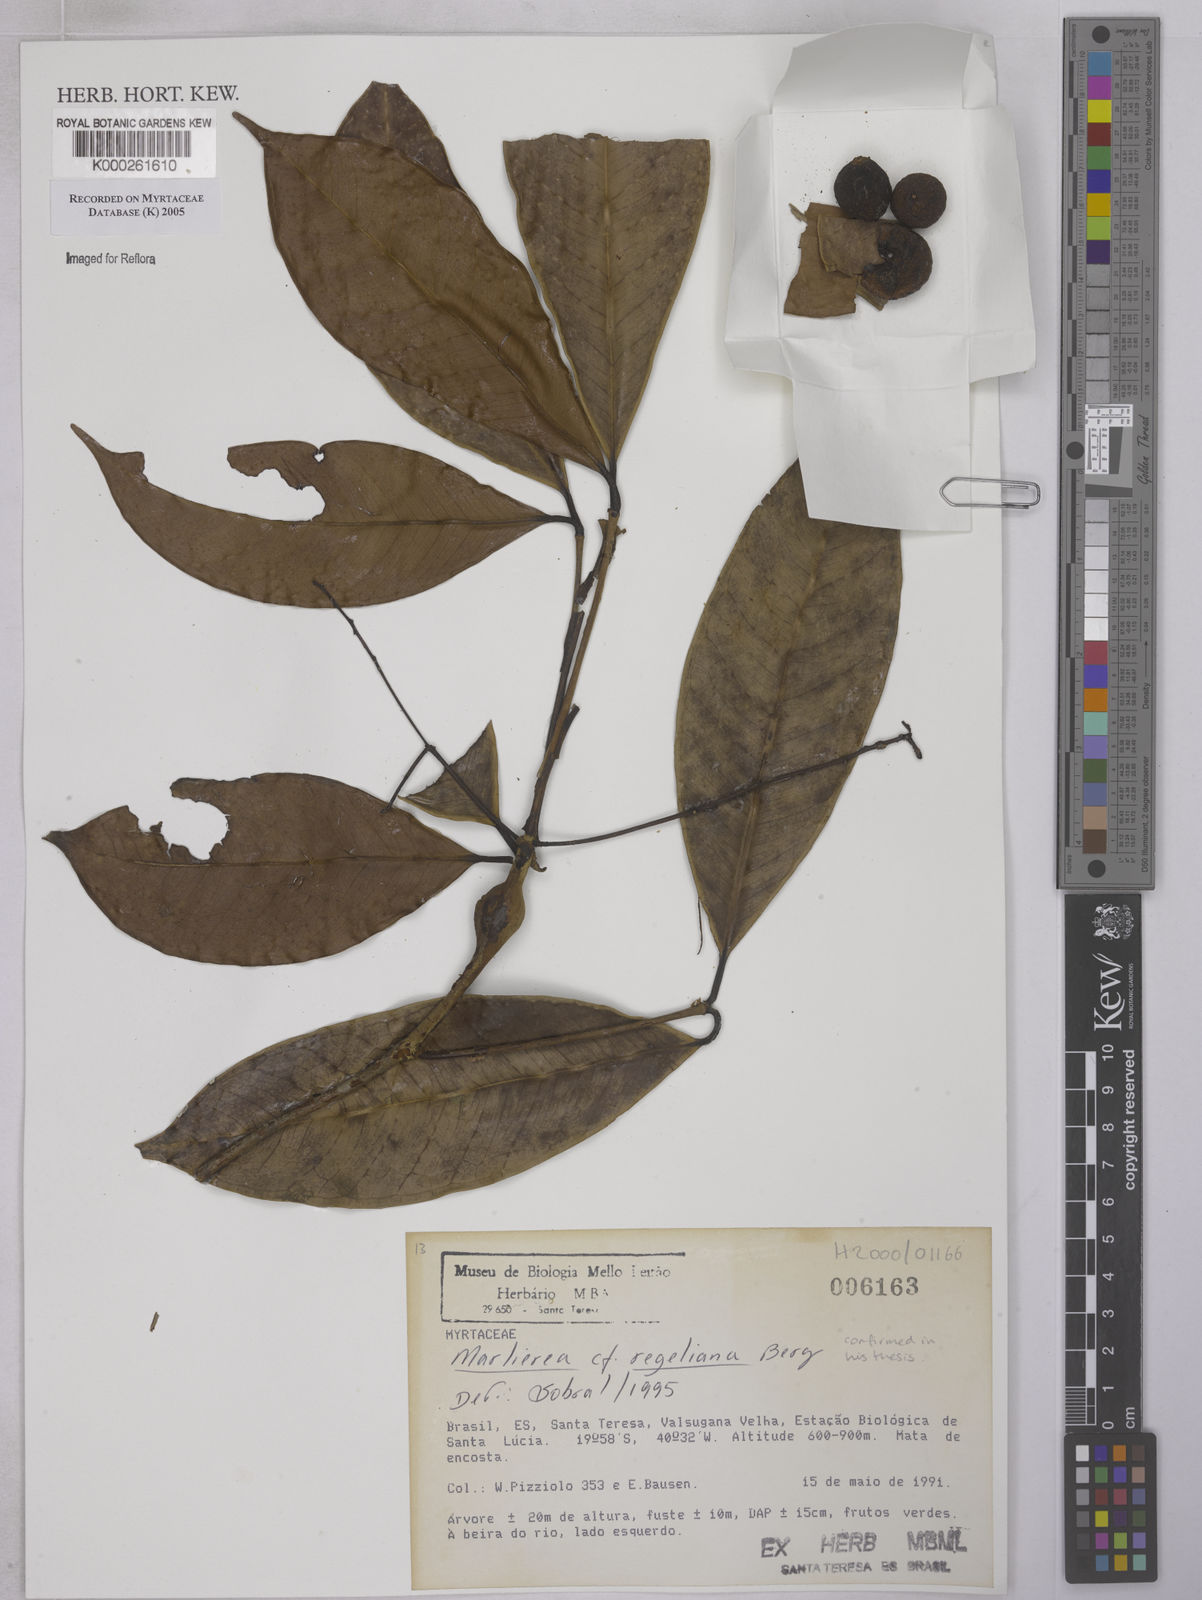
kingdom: Plantae
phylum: Tracheophyta
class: Magnoliopsida
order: Myrtales
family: Myrtaceae
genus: Myrcia
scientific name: Myrcia neoregeliana
